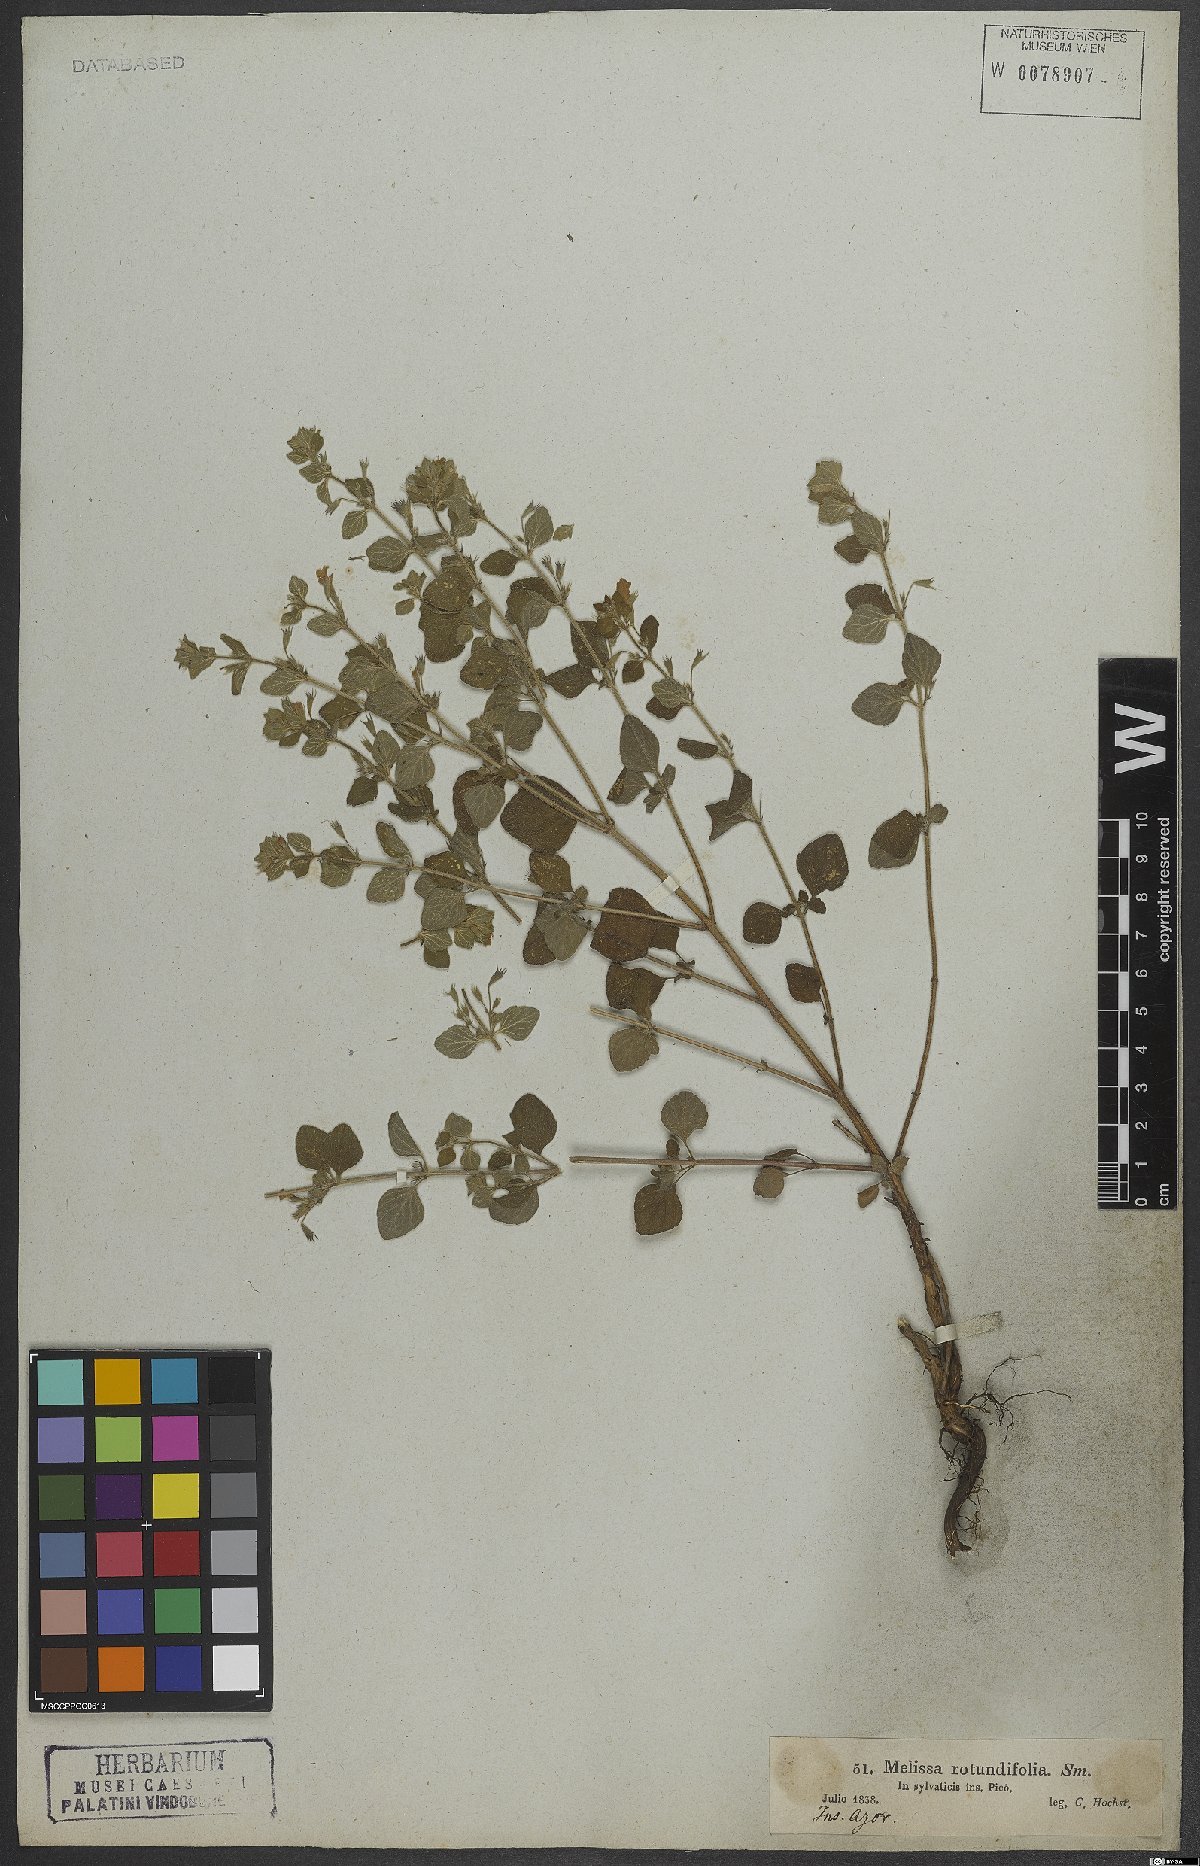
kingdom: Plantae
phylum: Tracheophyta
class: Magnoliopsida
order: Lamiales
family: Lamiaceae
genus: Melissa
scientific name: Melissa
